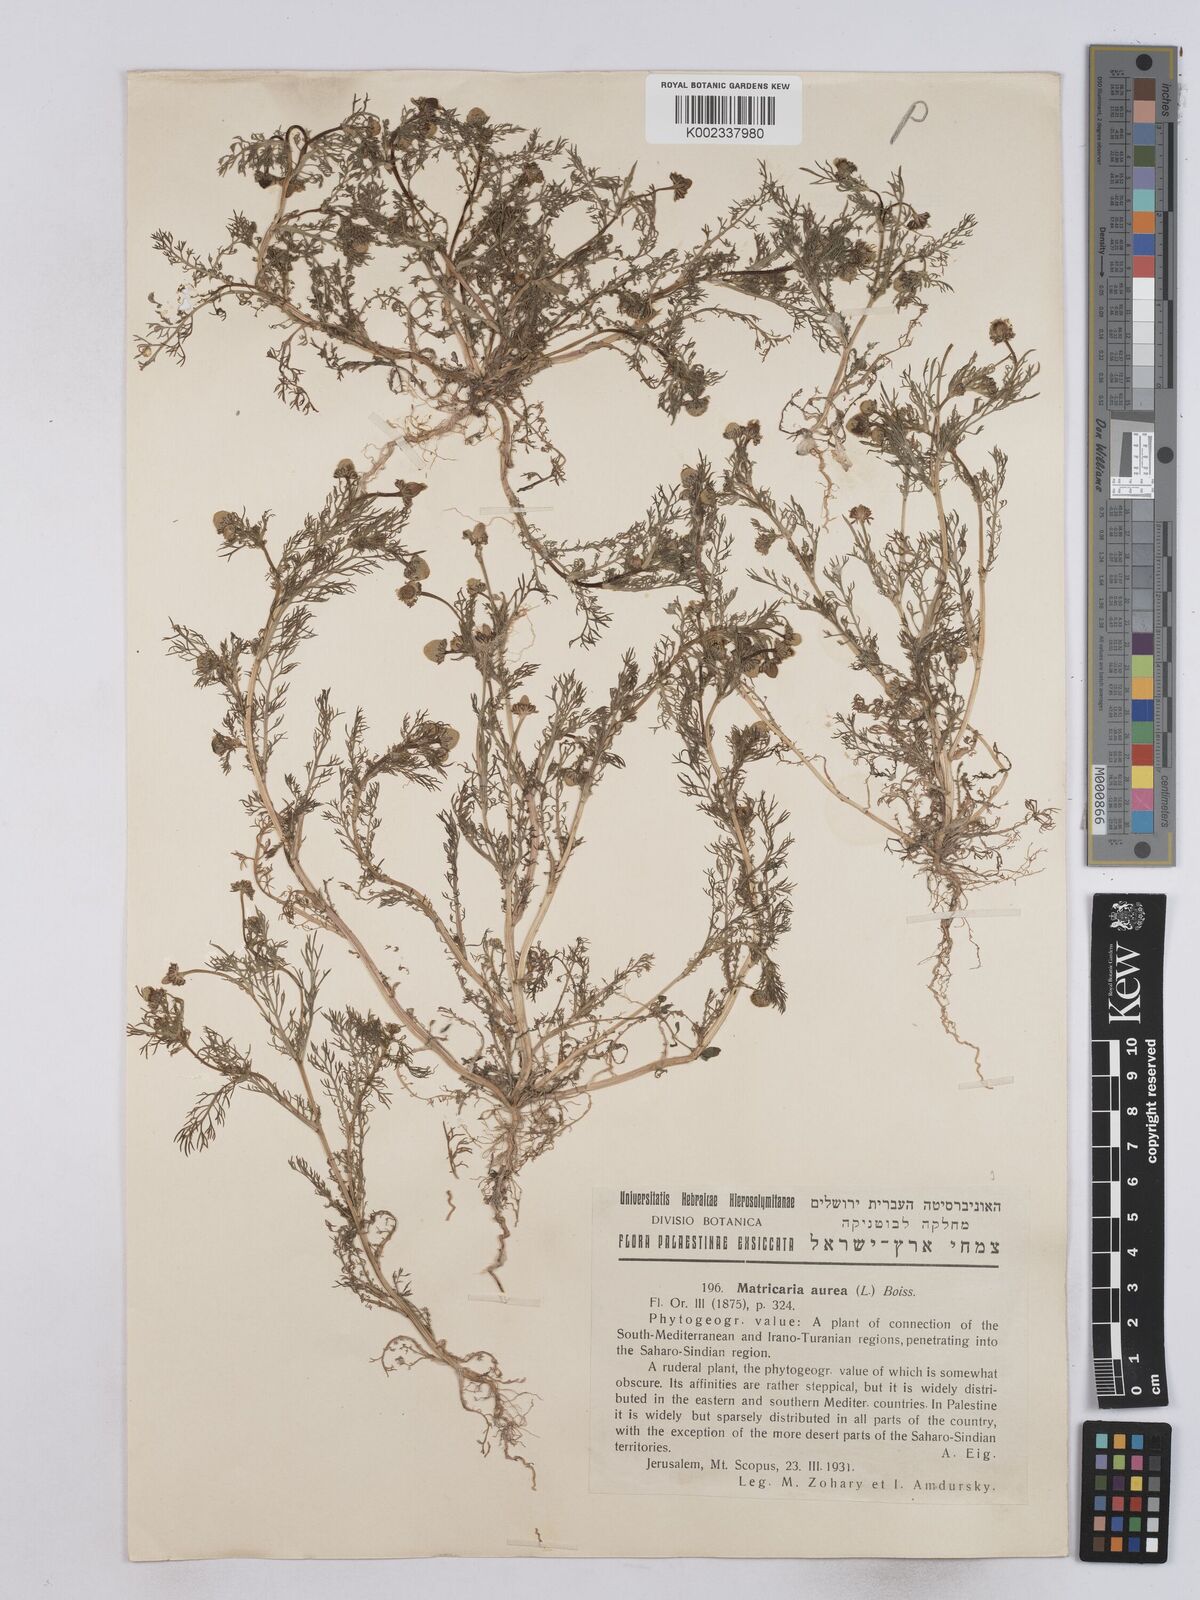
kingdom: Plantae
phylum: Tracheophyta
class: Magnoliopsida
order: Asterales
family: Asteraceae
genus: Matricaria
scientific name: Matricaria aurea
